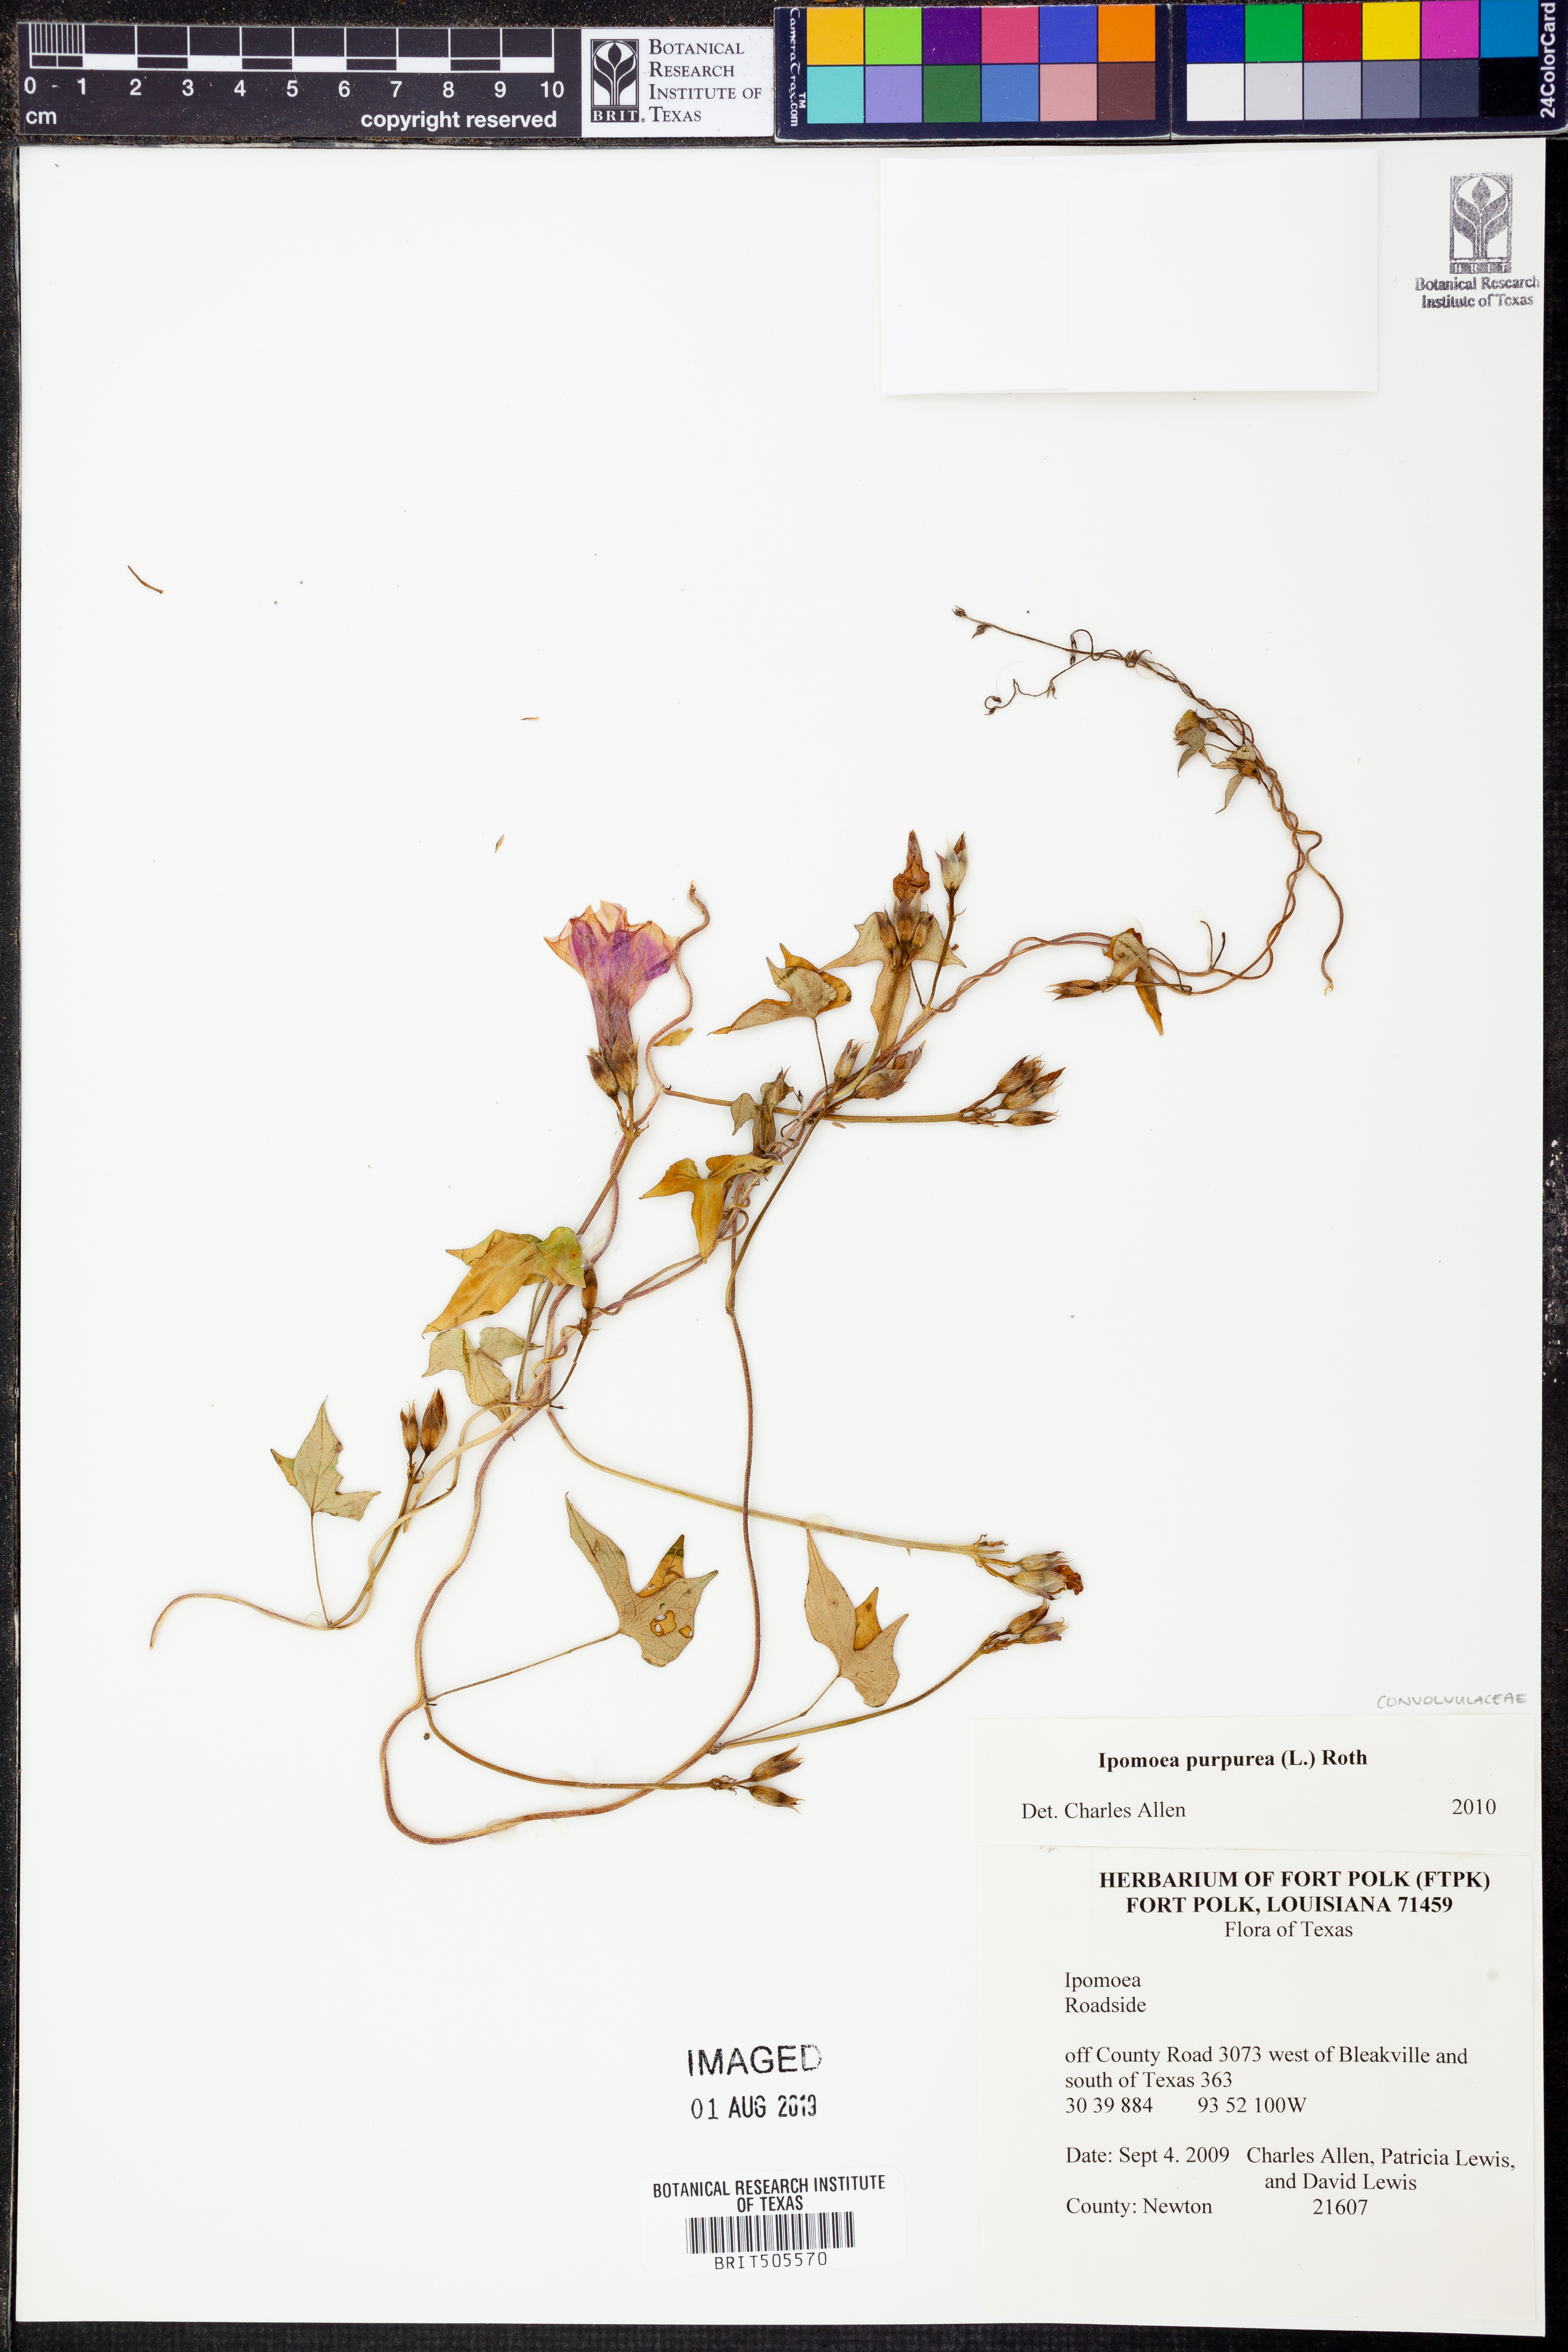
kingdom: Plantae
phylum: Tracheophyta
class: Magnoliopsida
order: Solanales
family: Convolvulaceae
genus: Ipomoea
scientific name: Ipomoea purpurea
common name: Common morning-glory
